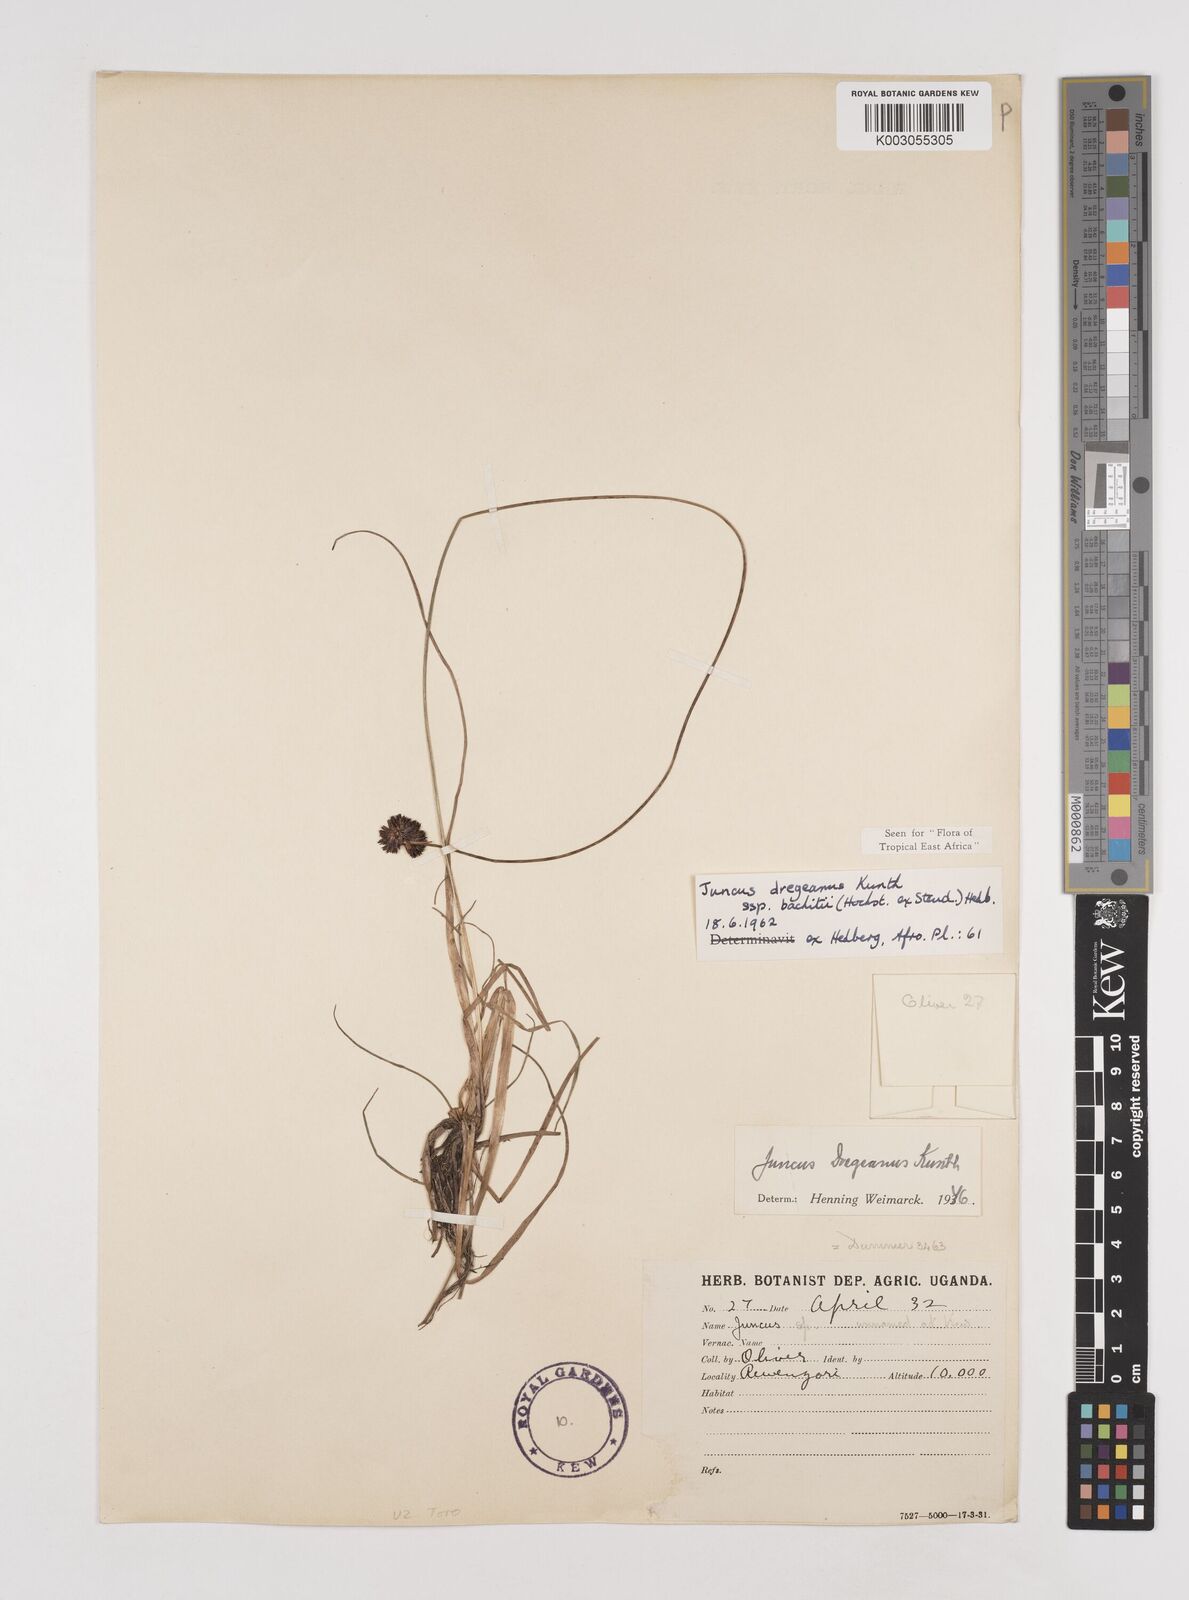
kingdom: Plantae
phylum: Tracheophyta
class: Liliopsida
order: Poales
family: Juncaceae
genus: Juncus
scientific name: Juncus dregeanus
